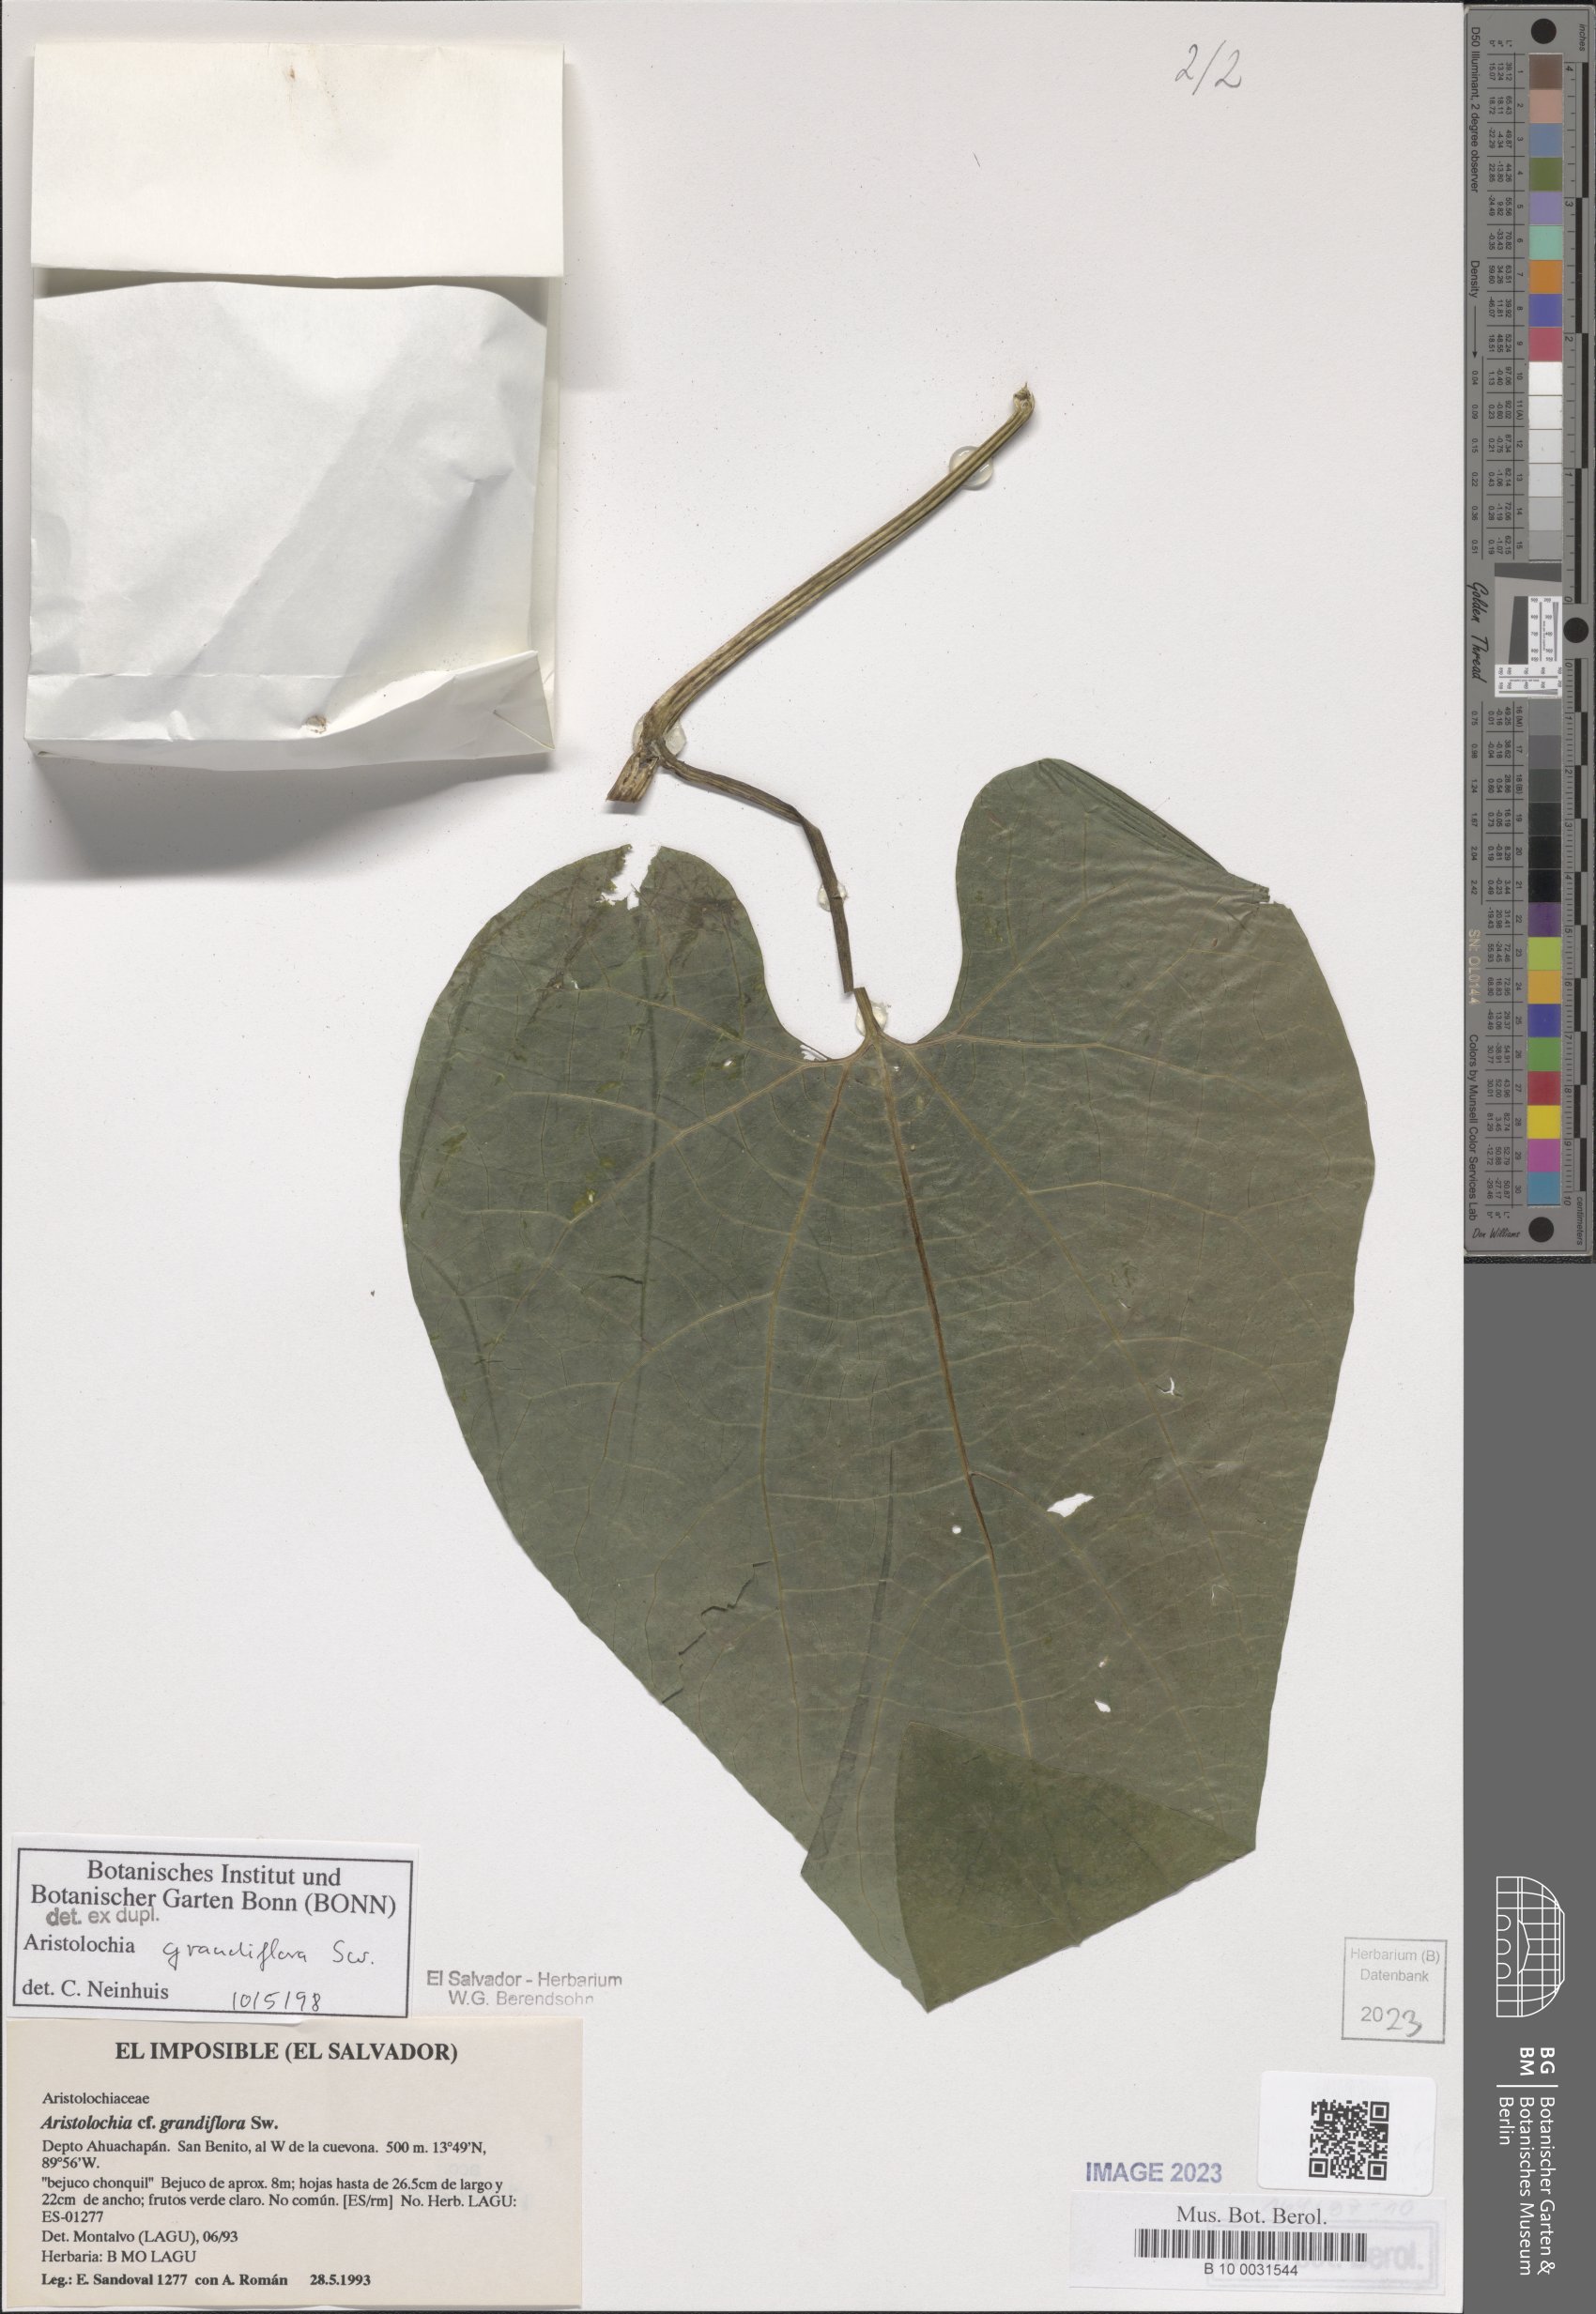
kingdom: Plantae
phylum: Tracheophyta
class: Magnoliopsida
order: Piperales
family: Aristolochiaceae
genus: Aristolochia
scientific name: Aristolochia grandiflora
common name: Pelicanflower
